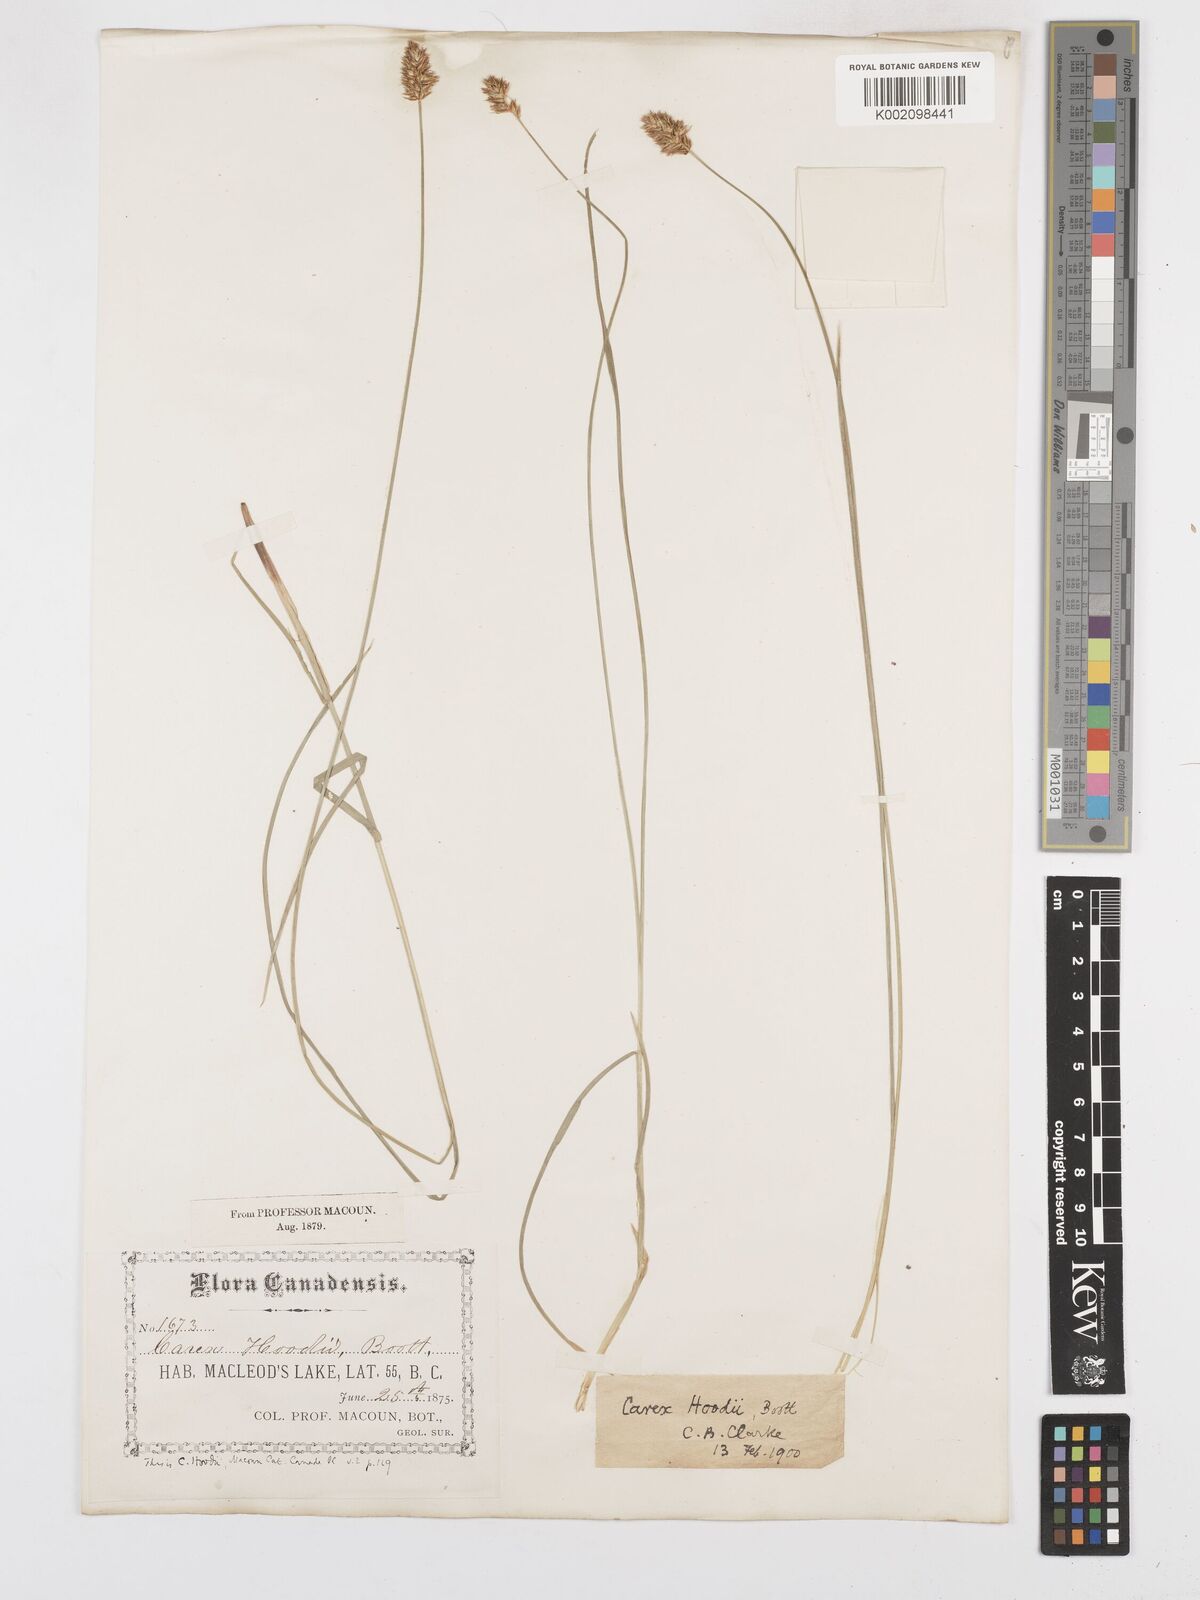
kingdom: Plantae
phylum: Tracheophyta
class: Liliopsida
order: Poales
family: Cyperaceae
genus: Carex
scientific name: Carex hoodii
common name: Hood's sedge
